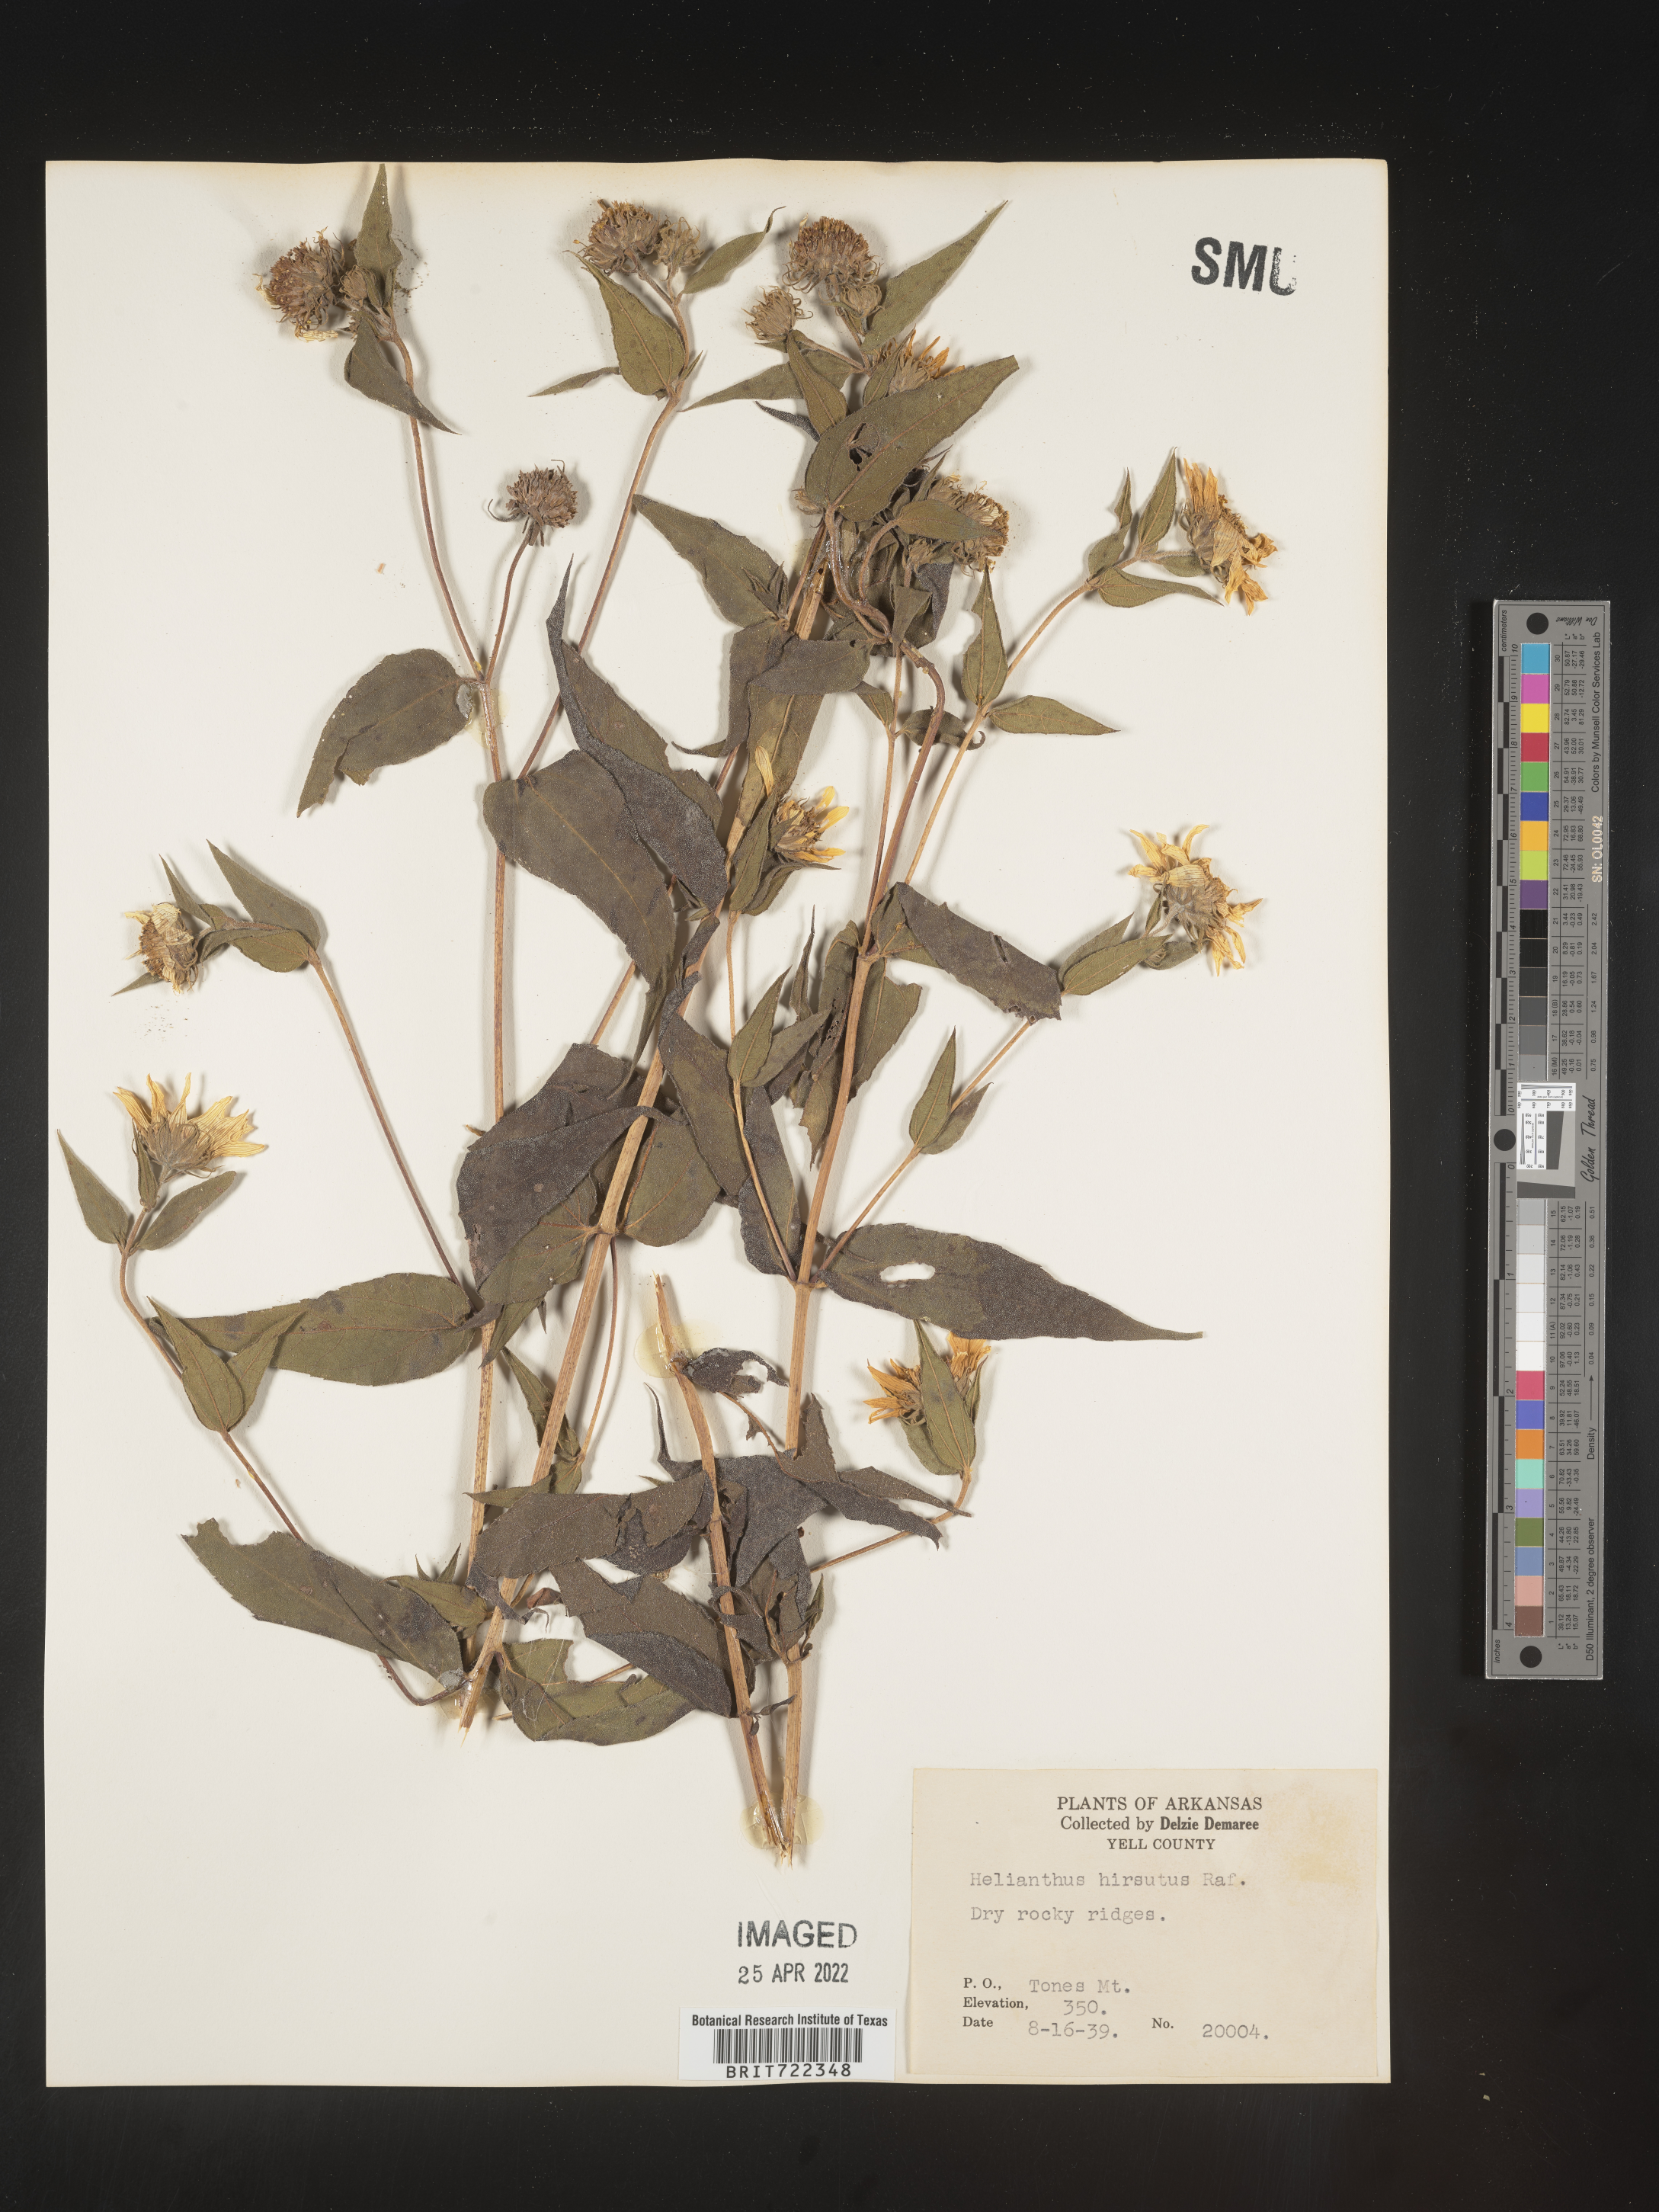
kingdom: Plantae
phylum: Tracheophyta
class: Magnoliopsida
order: Asterales
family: Asteraceae
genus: Helianthus
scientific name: Helianthus hirsutus
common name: Hairy sunflower
